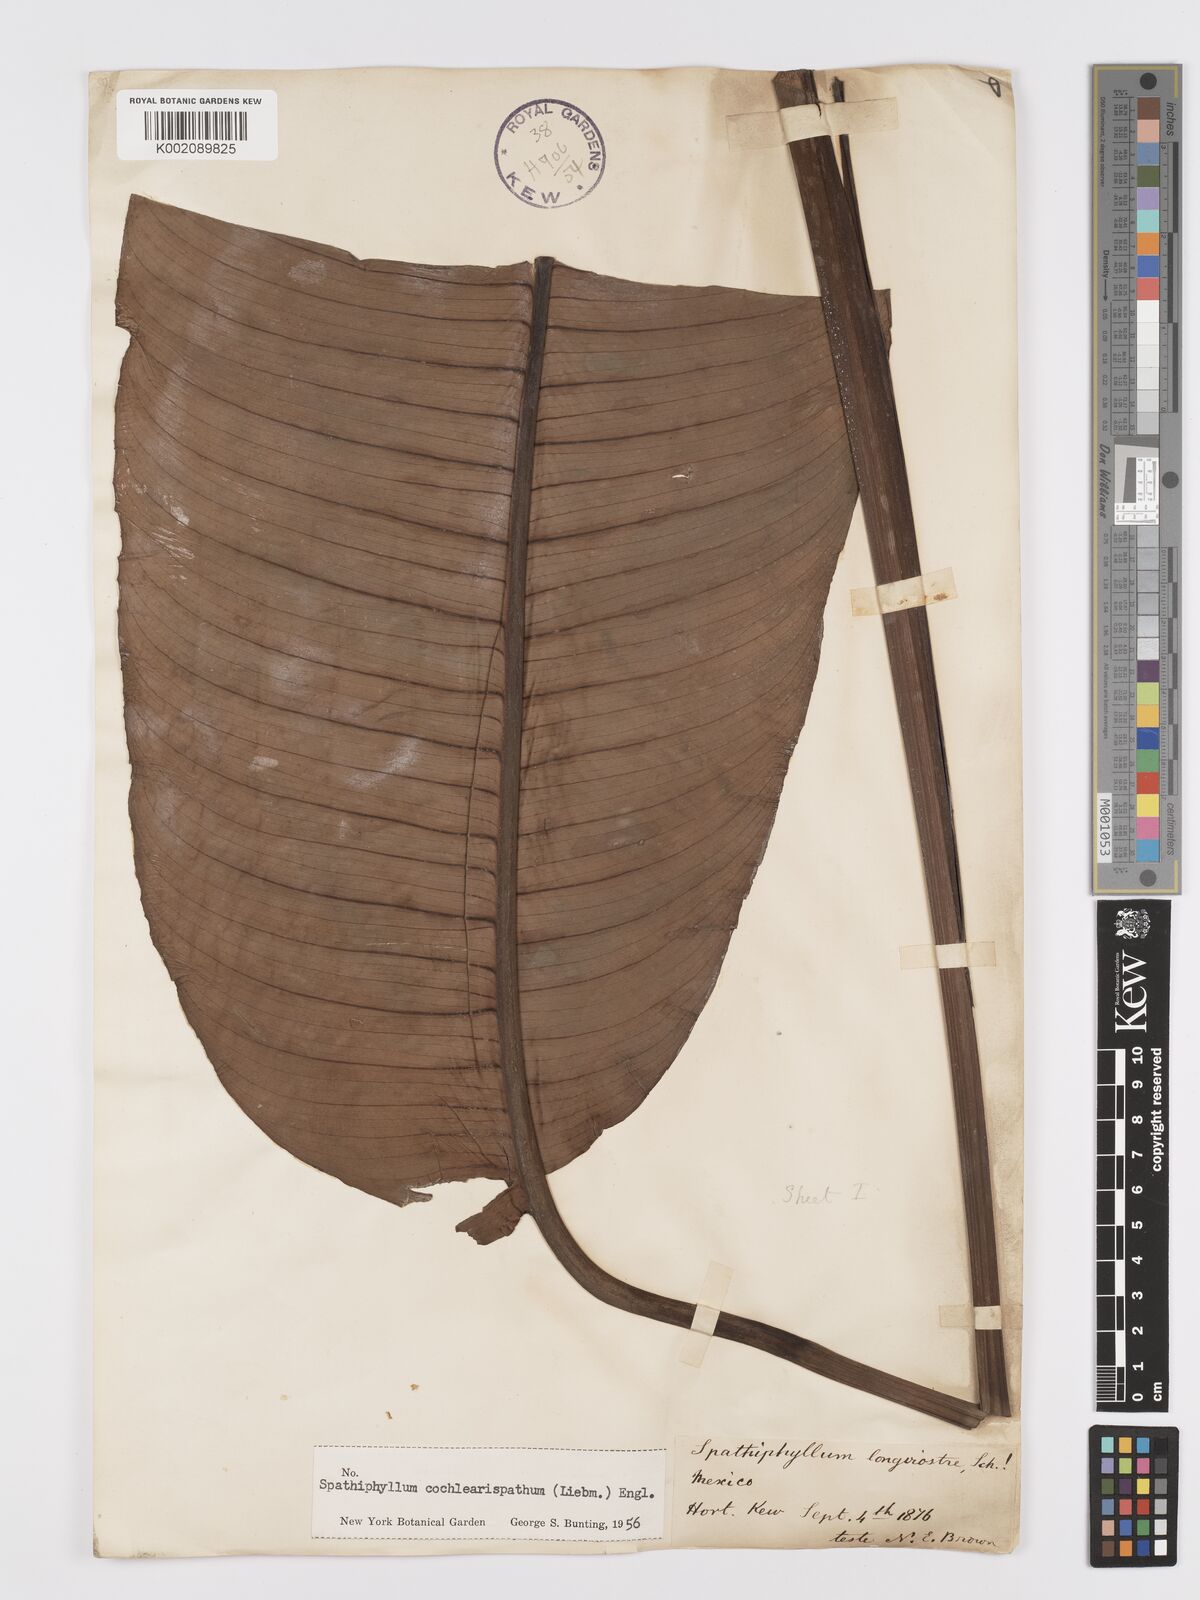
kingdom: Plantae
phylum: Tracheophyta
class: Liliopsida
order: Alismatales
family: Araceae
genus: Spathiphyllum
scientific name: Spathiphyllum cochlearispathum
